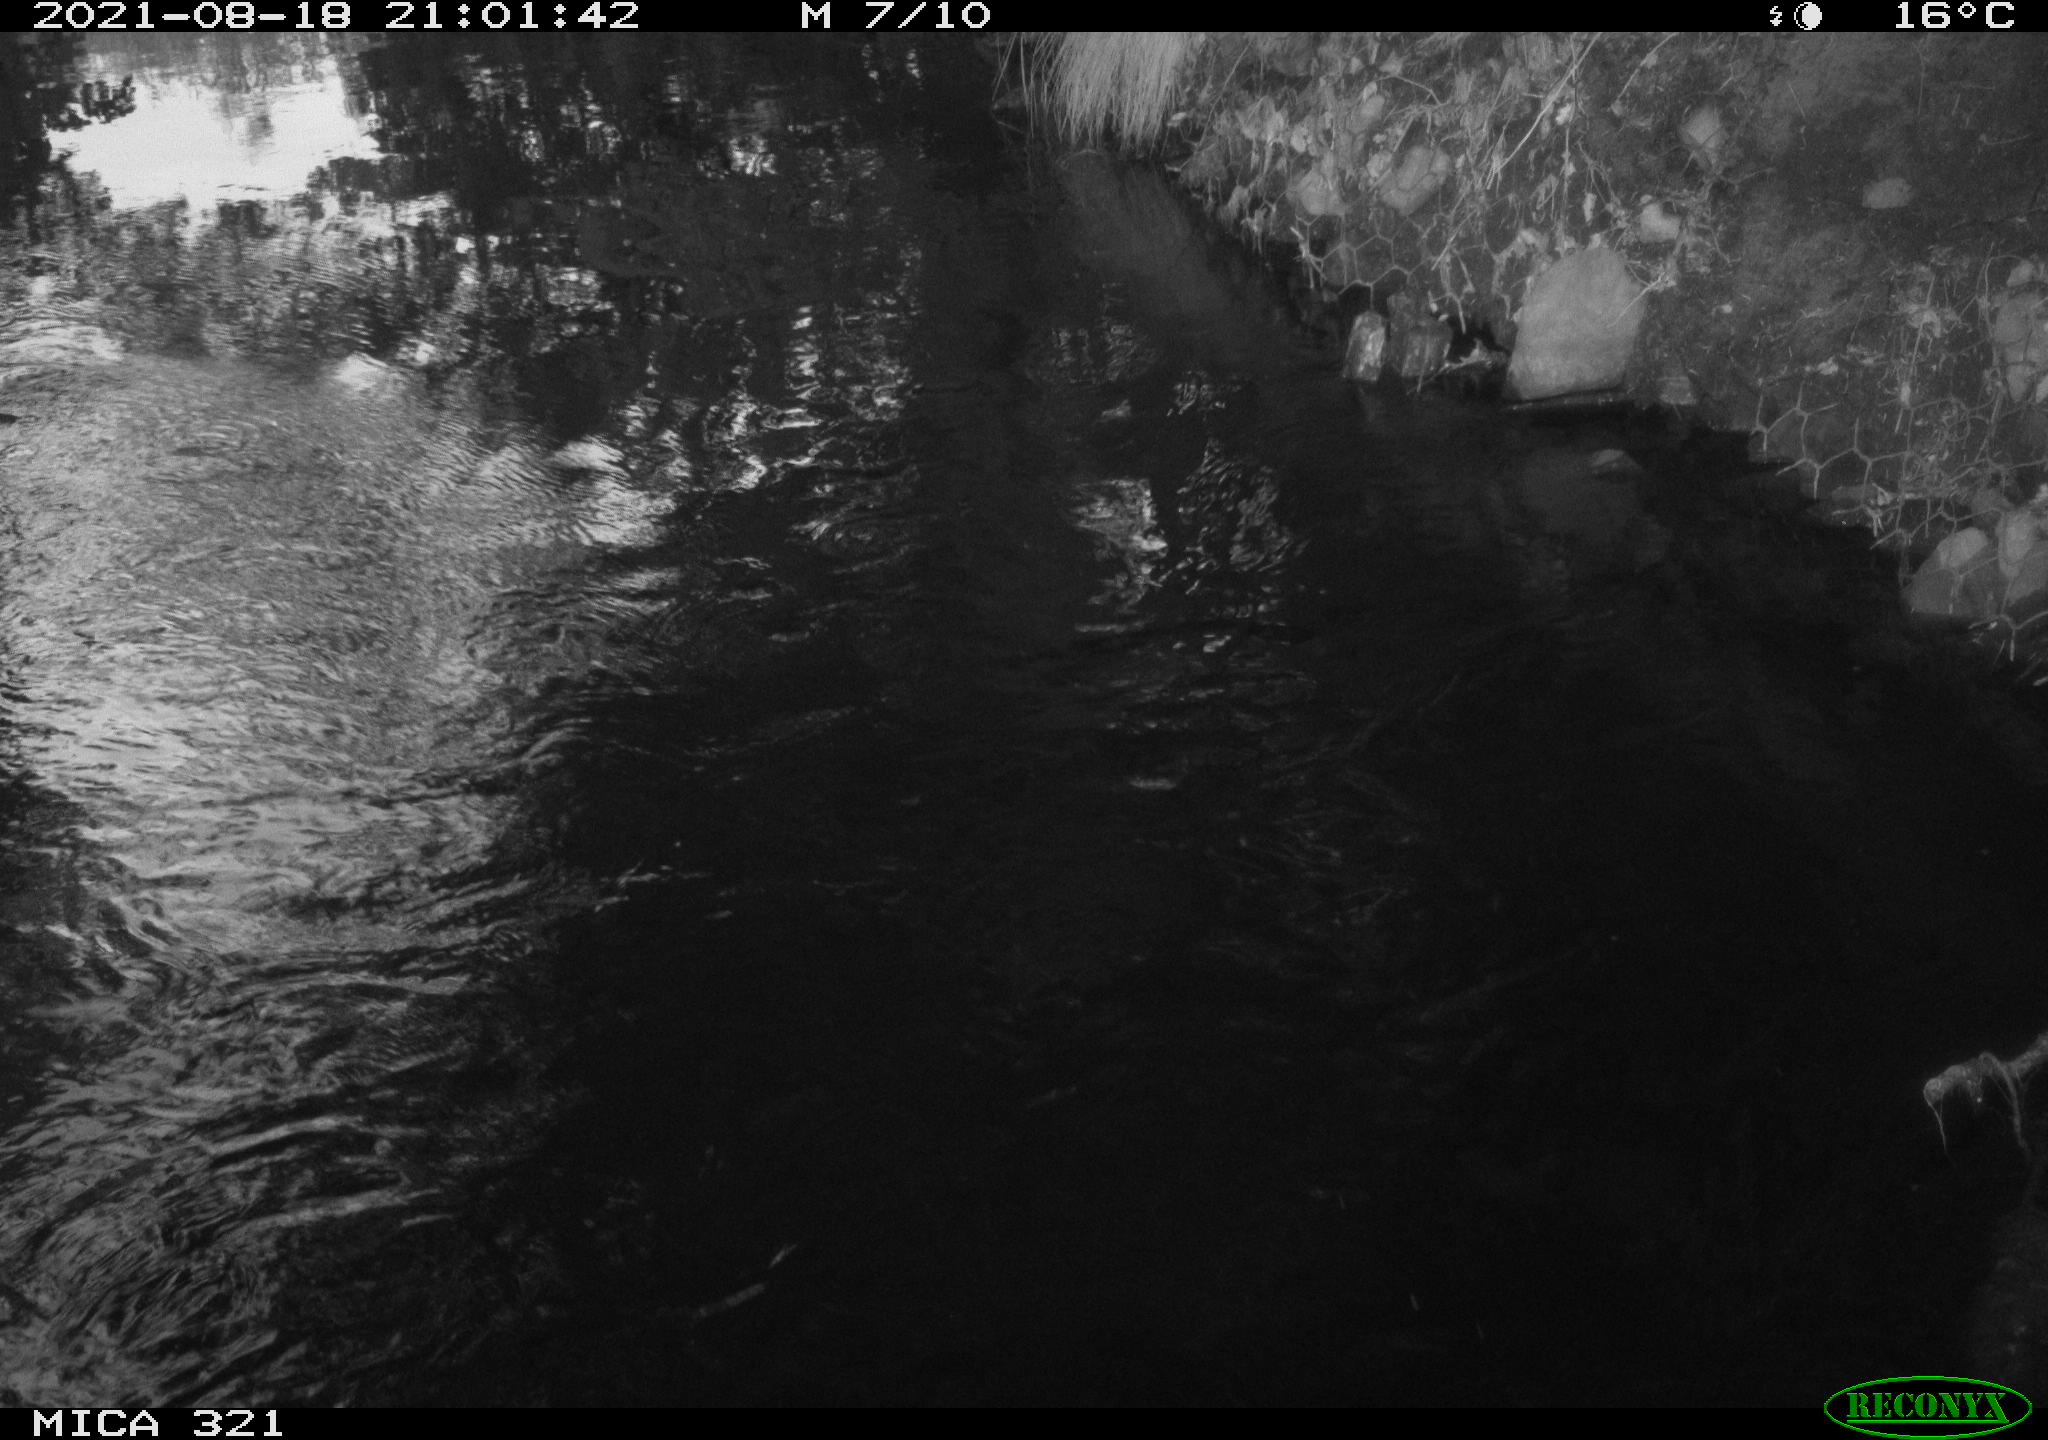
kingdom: Animalia
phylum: Chordata
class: Aves
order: Anseriformes
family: Anatidae
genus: Anas
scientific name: Anas platyrhynchos
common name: Mallard
